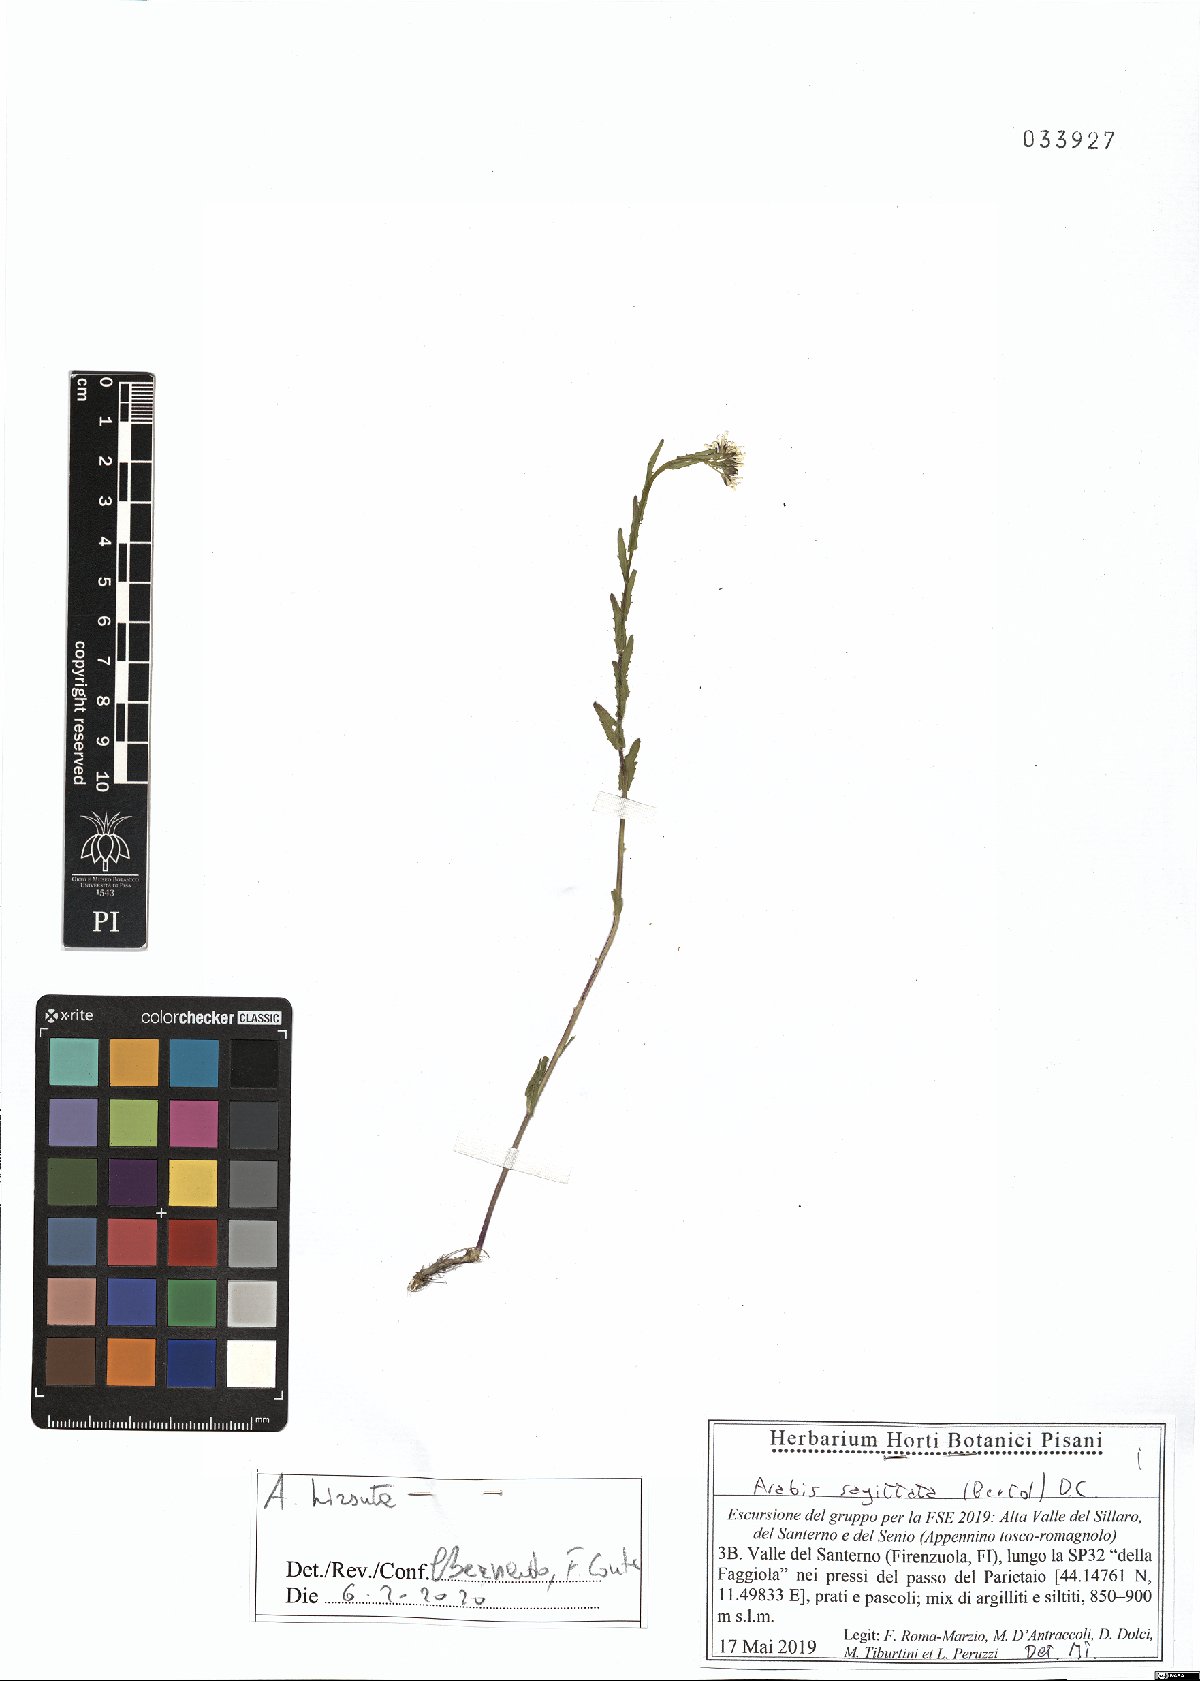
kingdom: Plantae
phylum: Tracheophyta
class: Magnoliopsida
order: Brassicales
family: Brassicaceae
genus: Arabis
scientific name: Arabis hirsuta
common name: Hairy rock-cress
